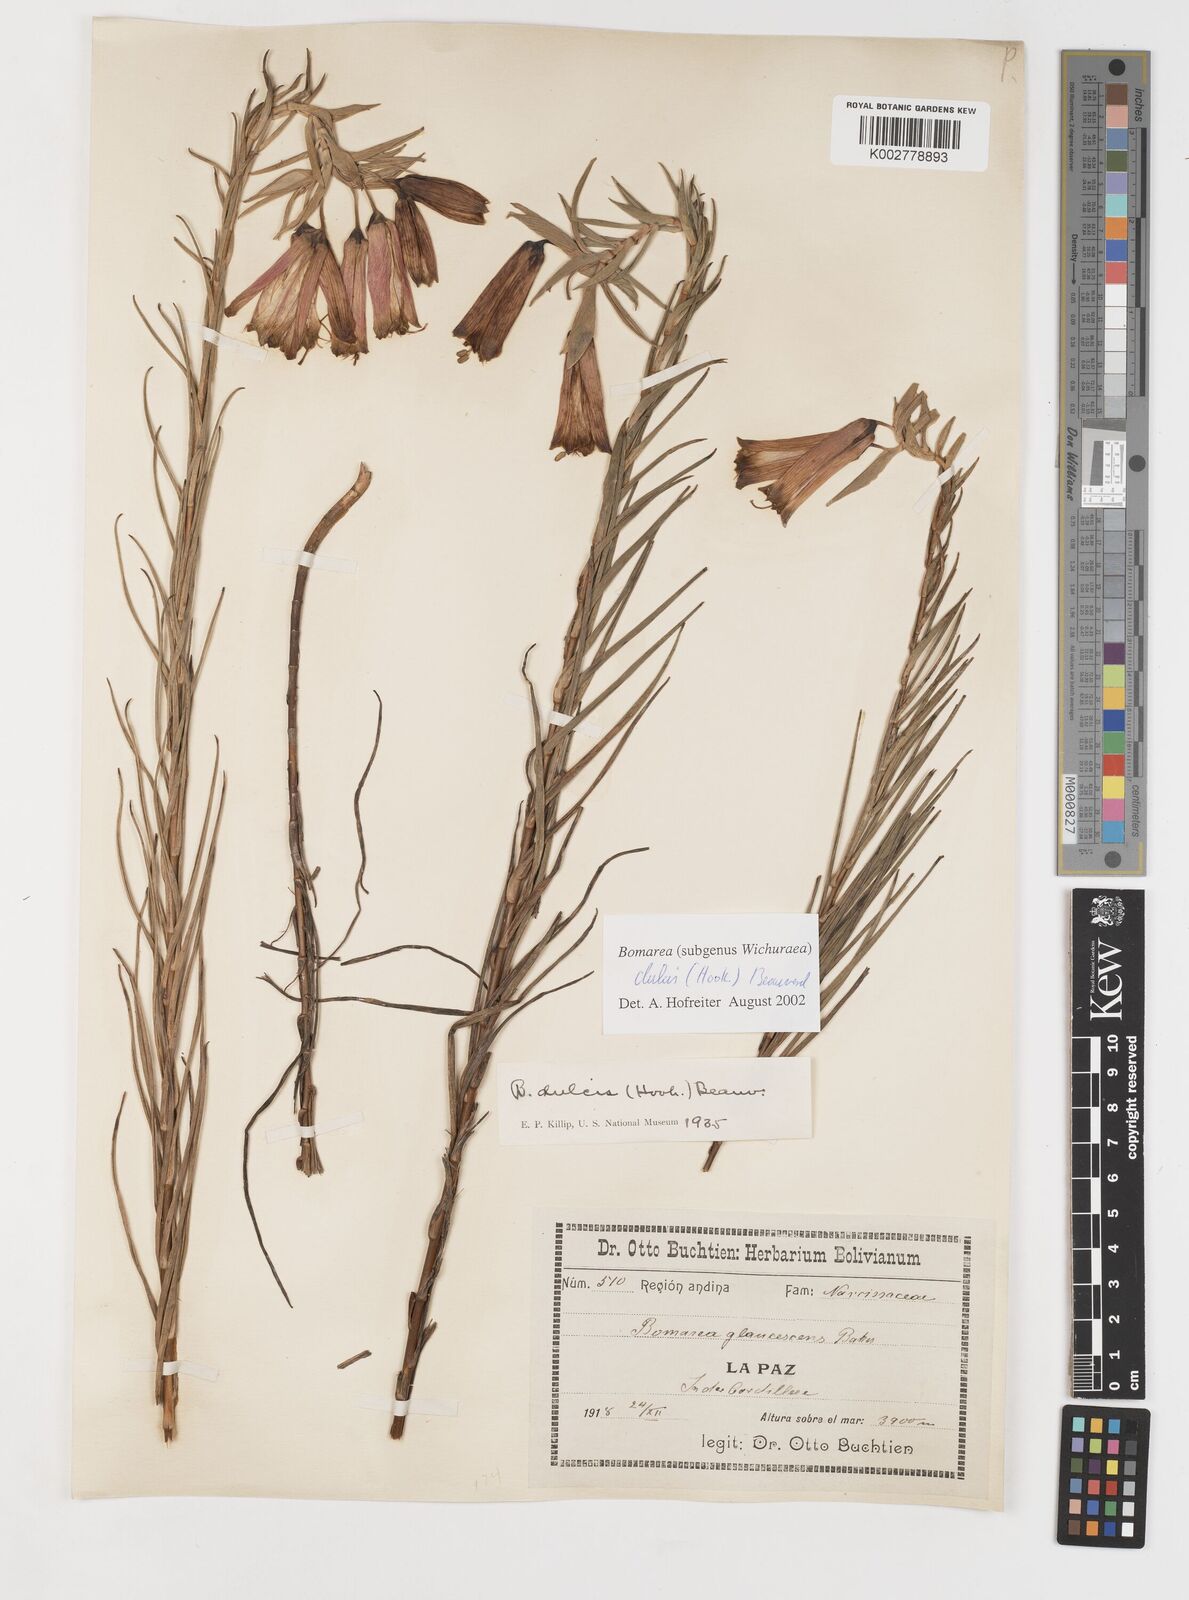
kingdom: Plantae
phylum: Tracheophyta
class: Liliopsida
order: Liliales
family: Alstroemeriaceae
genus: Bomarea
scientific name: Bomarea dulcis
